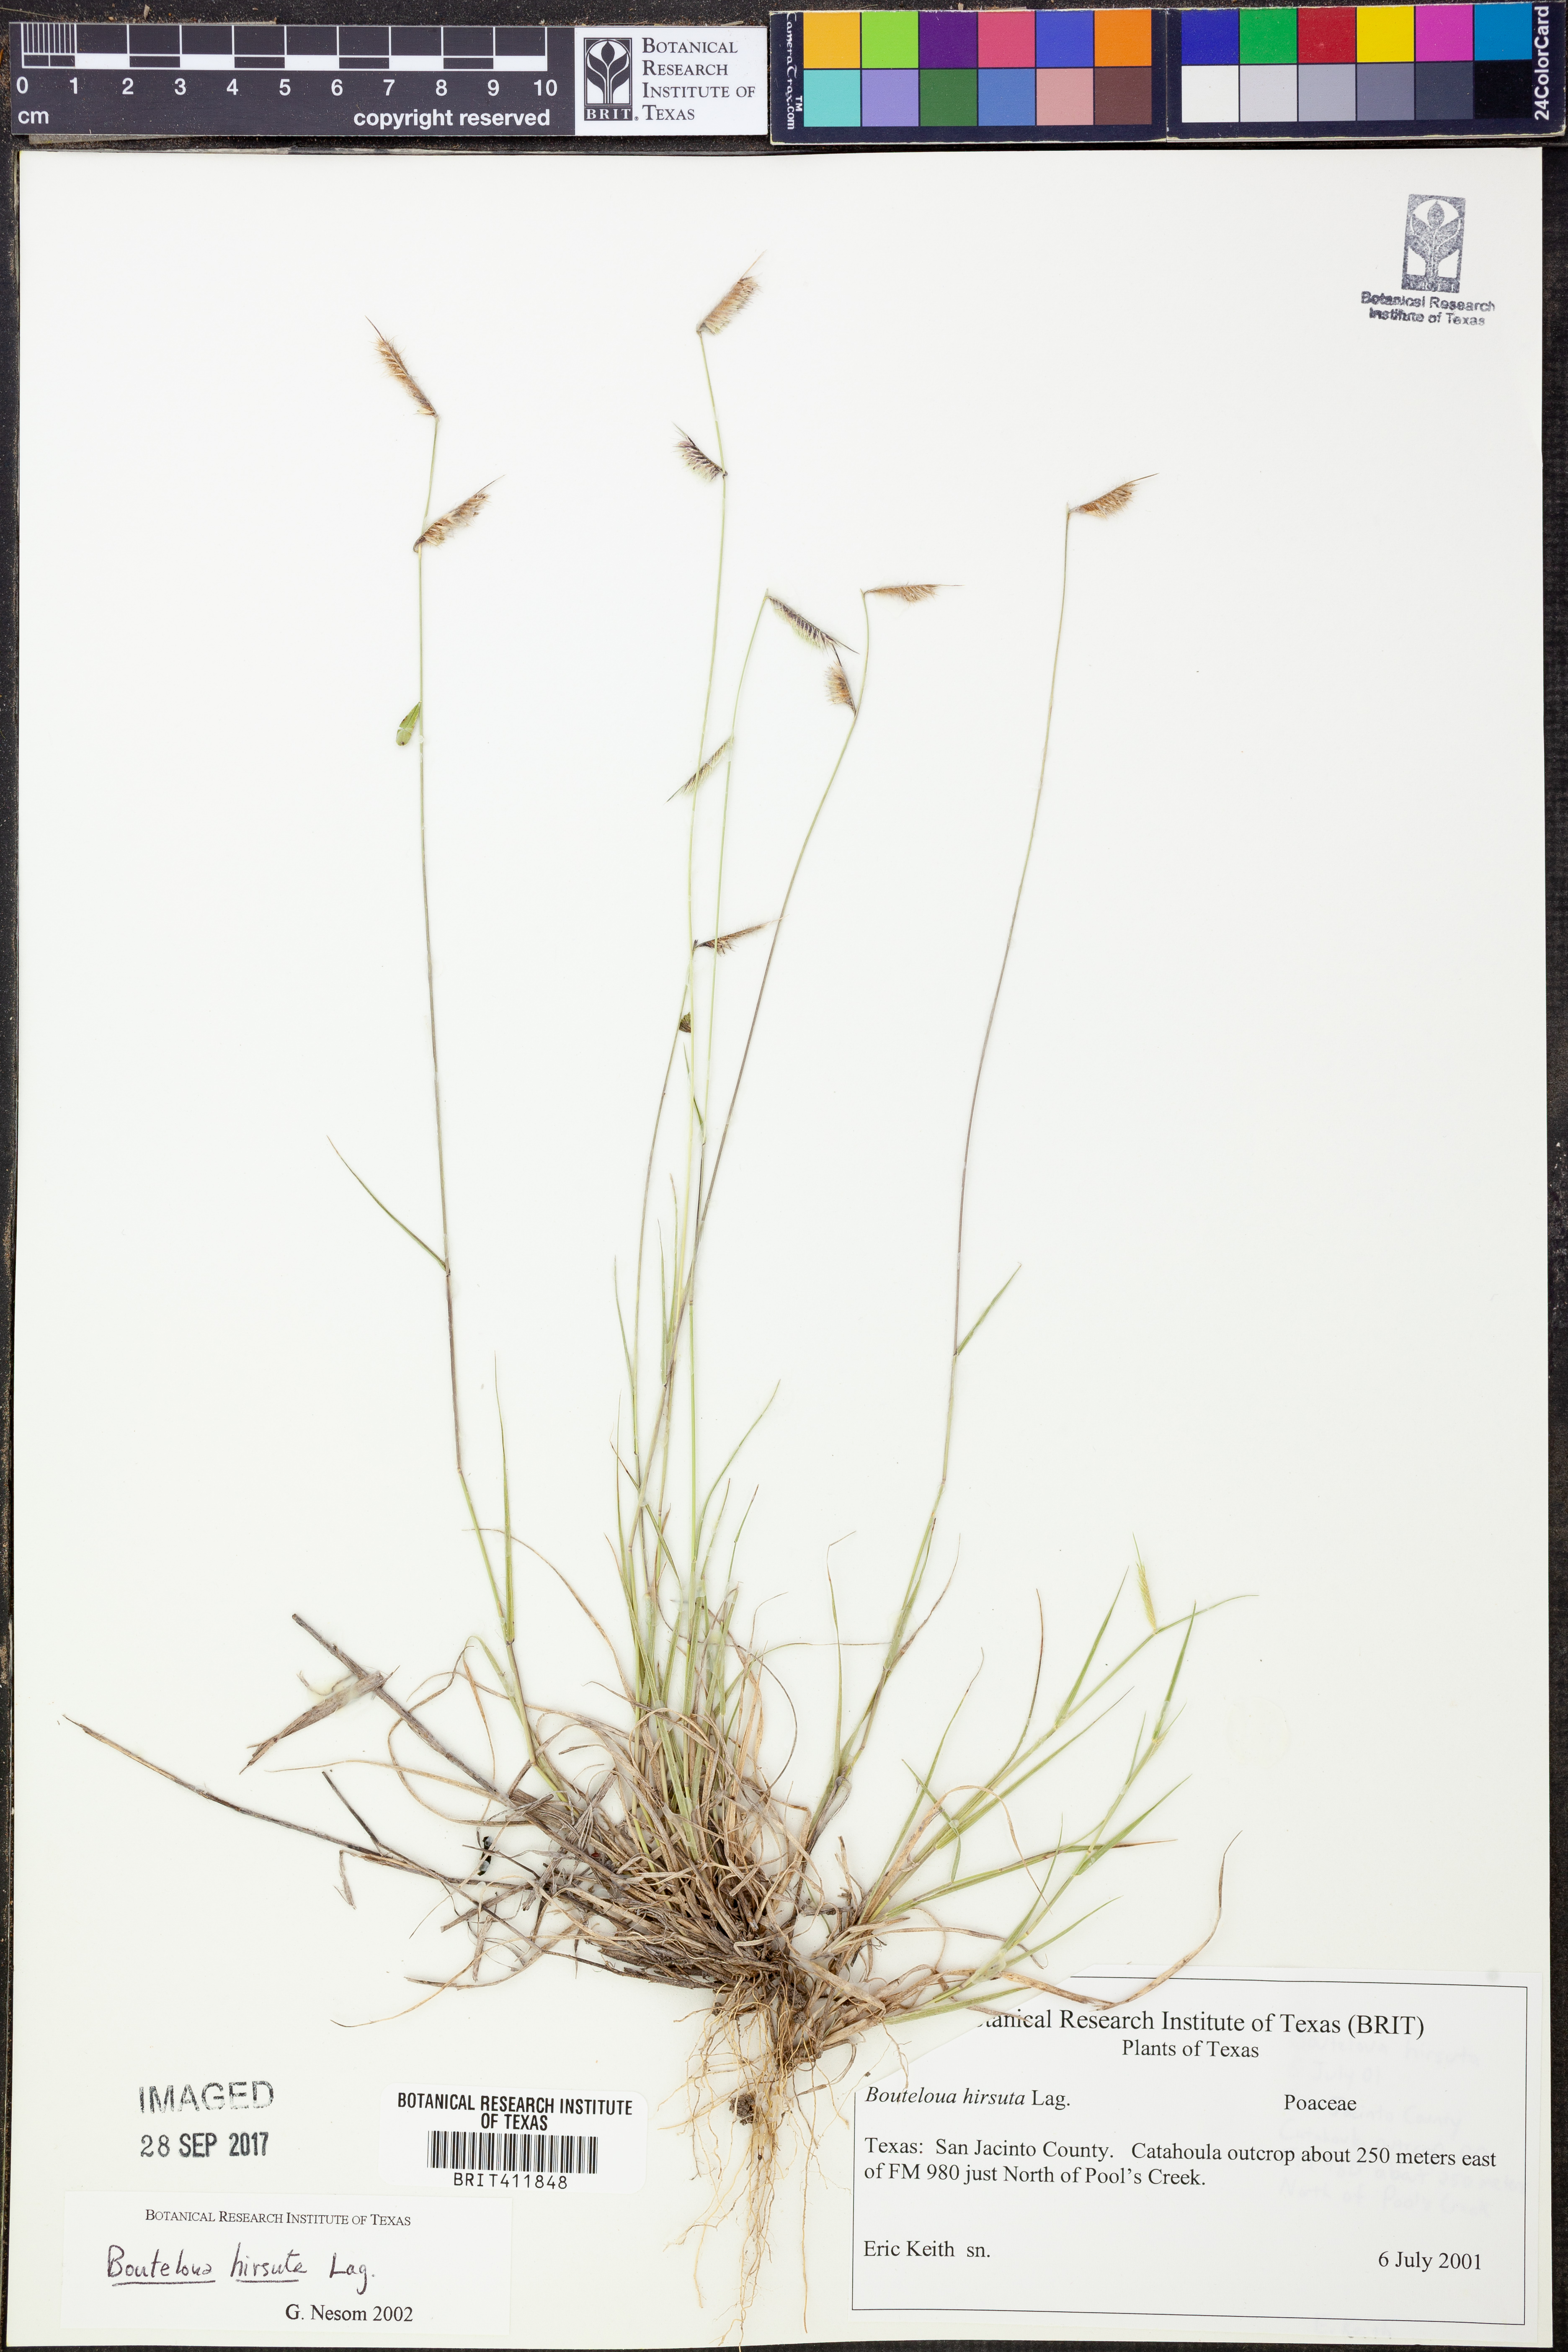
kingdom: Plantae
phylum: Tracheophyta
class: Liliopsida
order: Poales
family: Poaceae
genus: Bouteloua
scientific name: Bouteloua hirsuta
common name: Hairy grama
